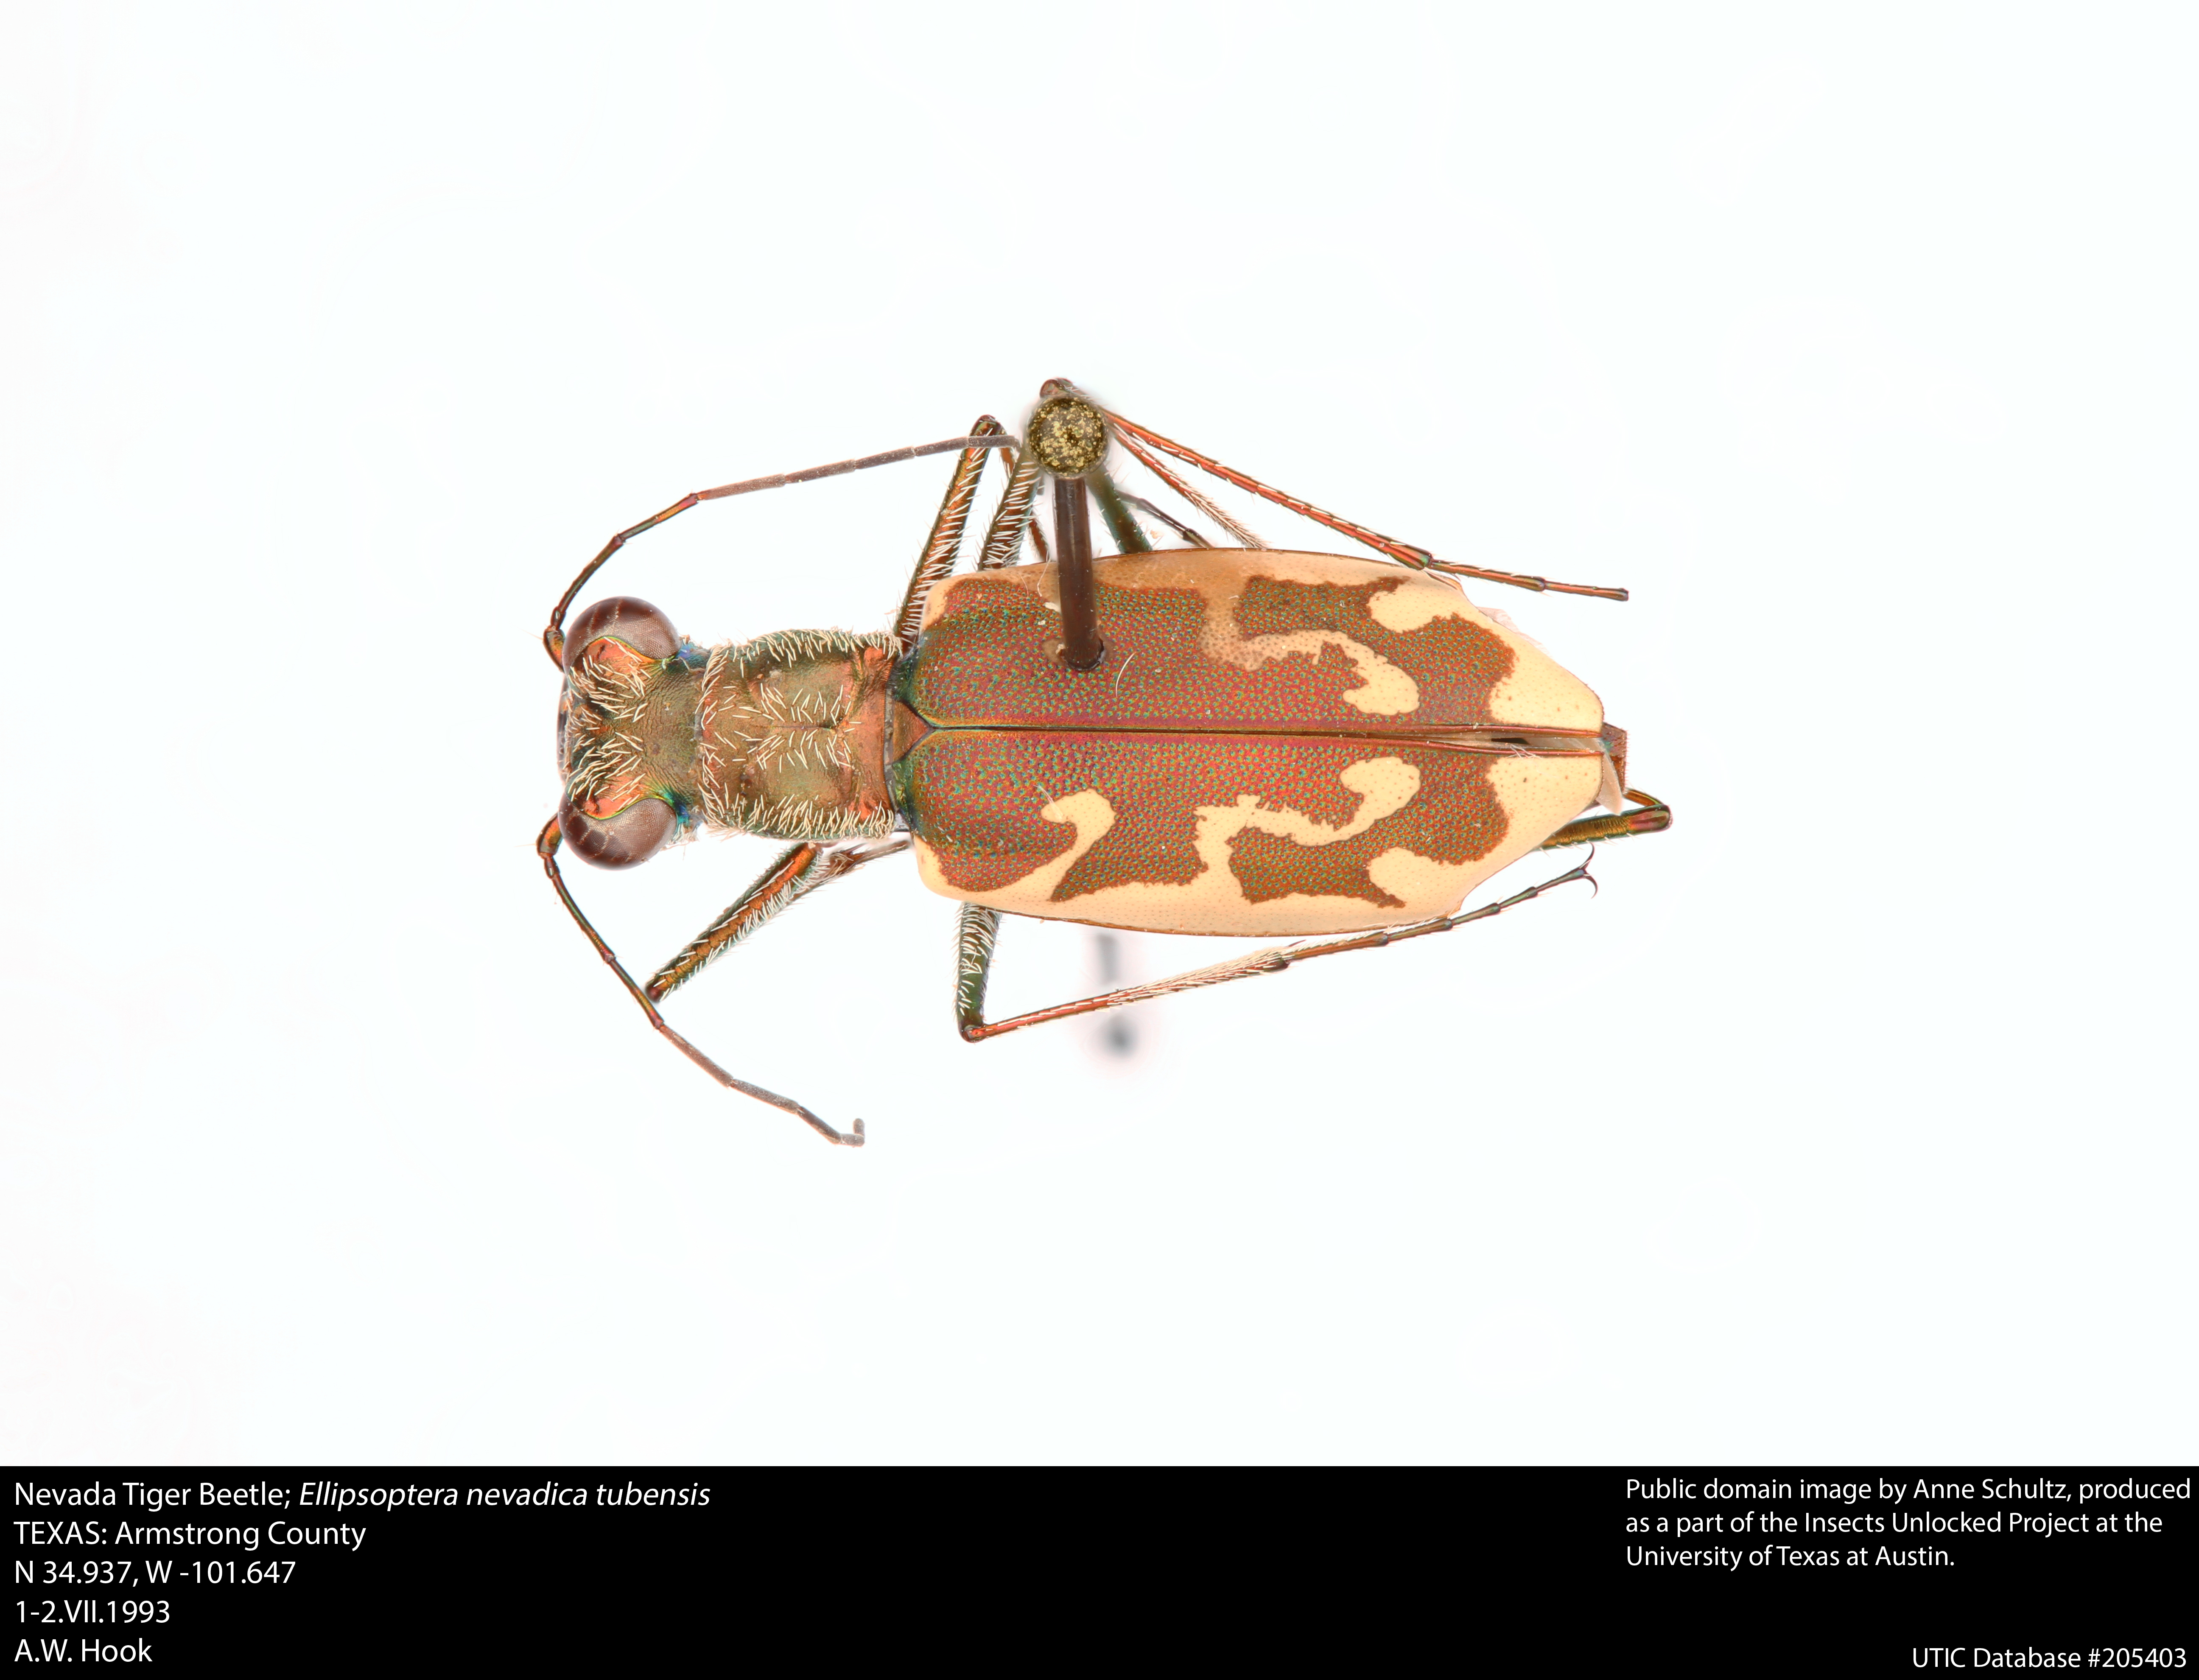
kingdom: Animalia
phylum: Arthropoda
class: Insecta
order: Coleoptera
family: Carabidae
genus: Ellipsoptera
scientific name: Ellipsoptera nevadica
